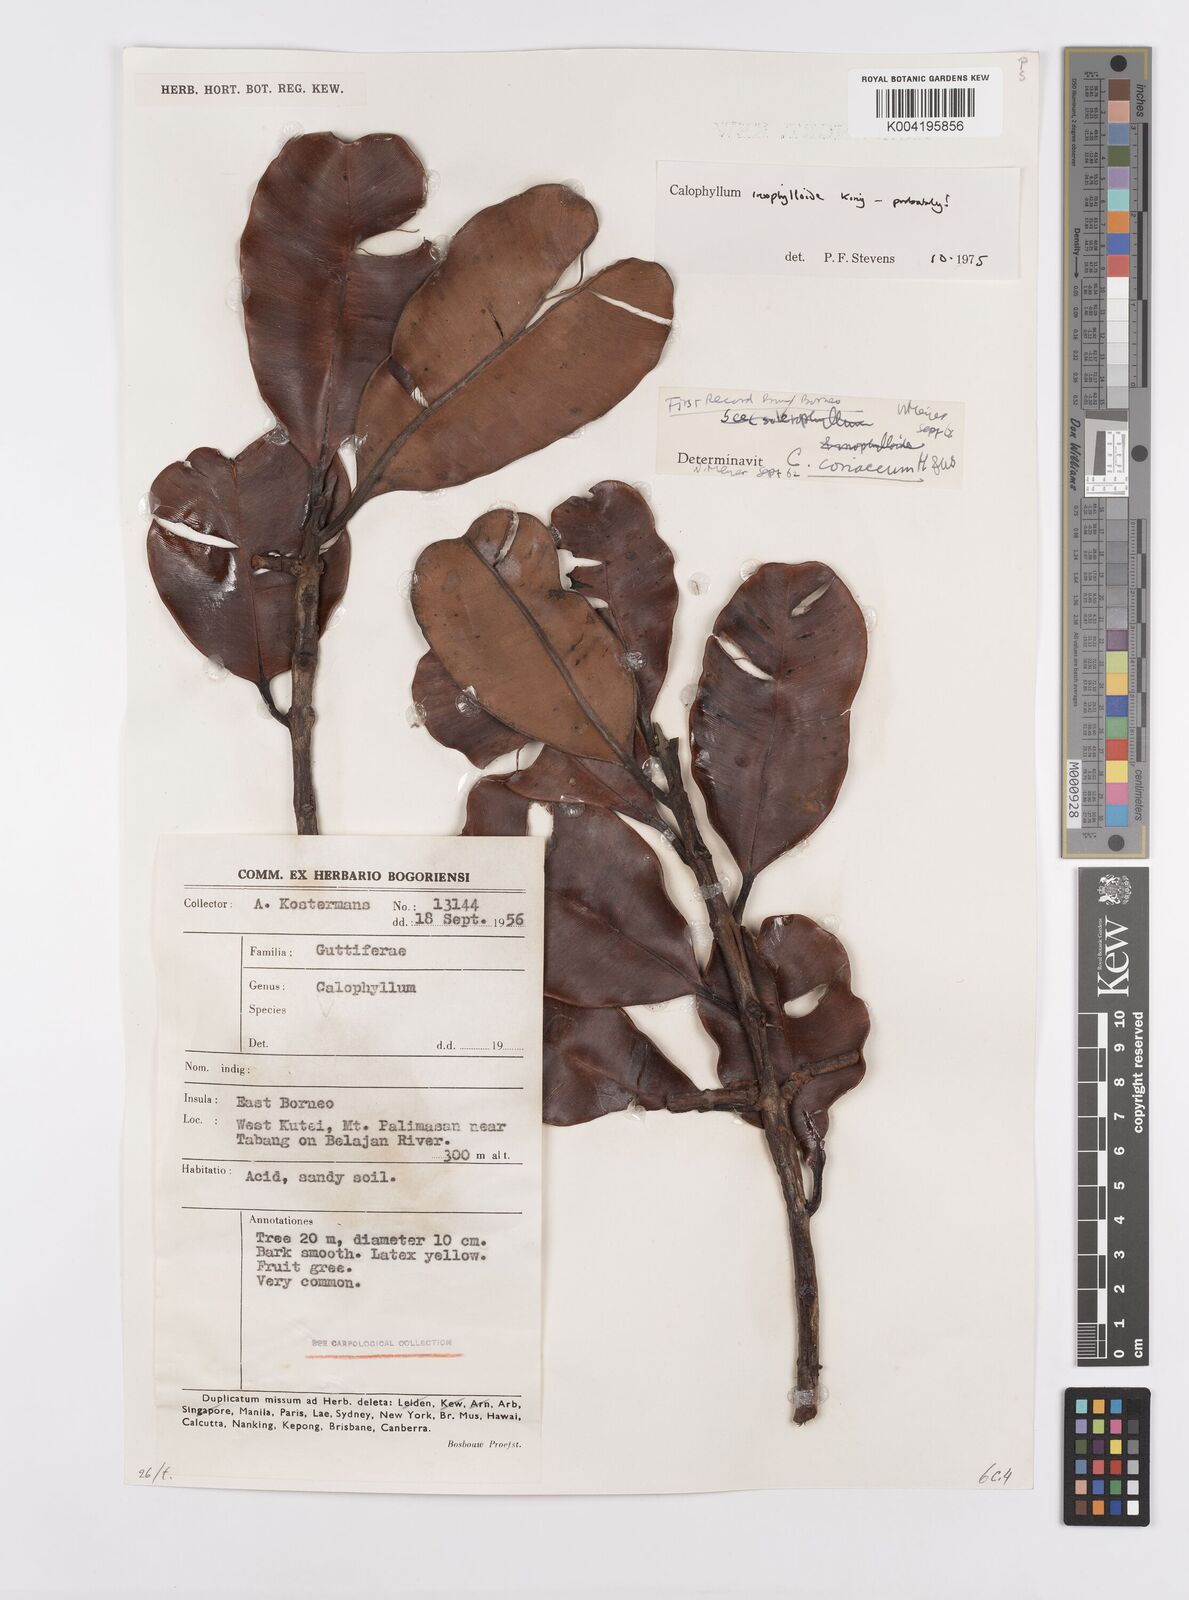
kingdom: Plantae
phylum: Tracheophyta
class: Magnoliopsida
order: Malpighiales
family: Calophyllaceae
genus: Calophyllum
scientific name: Calophyllum teysmannii
